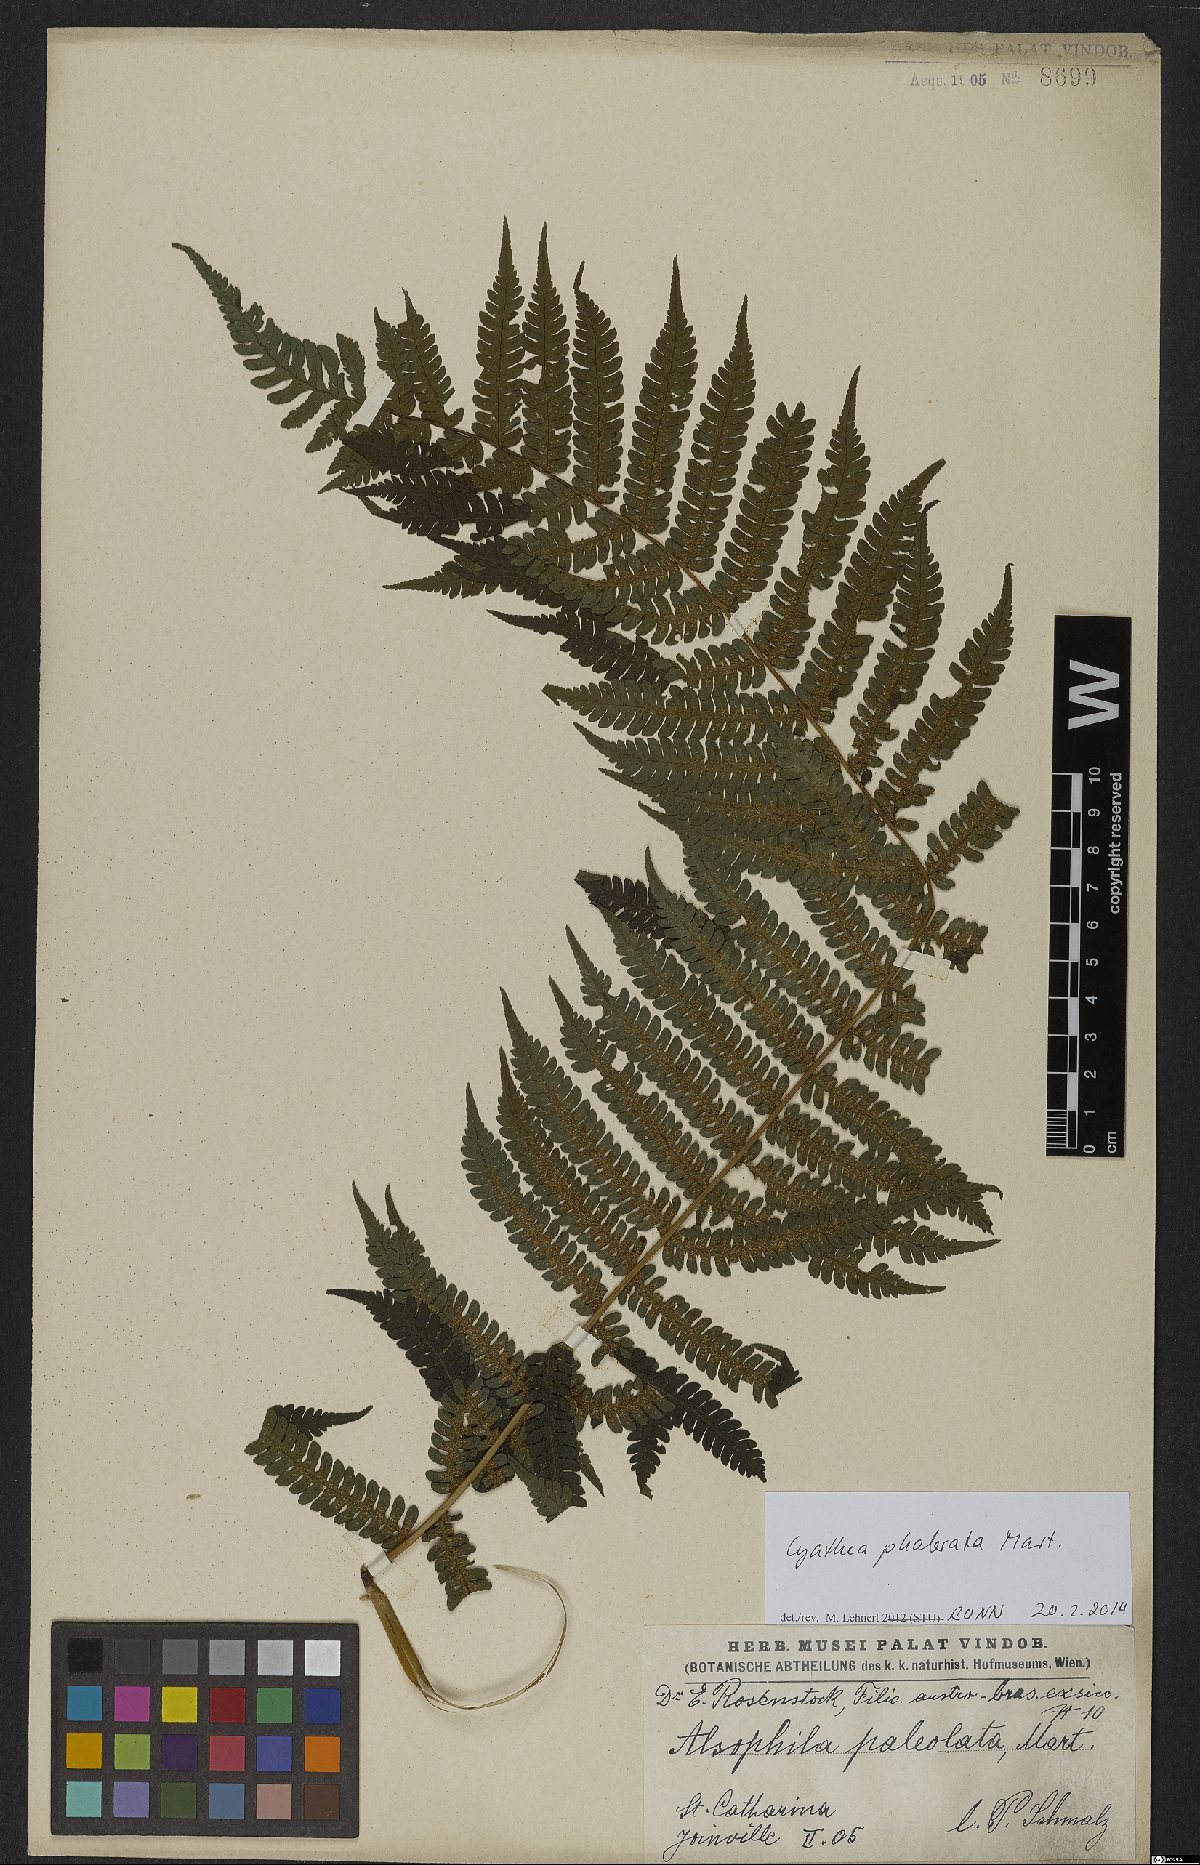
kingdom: Plantae
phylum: Tracheophyta
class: Polypodiopsida
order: Cyatheales
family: Cyatheaceae
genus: Cyathea
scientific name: Cyathea phalerata
